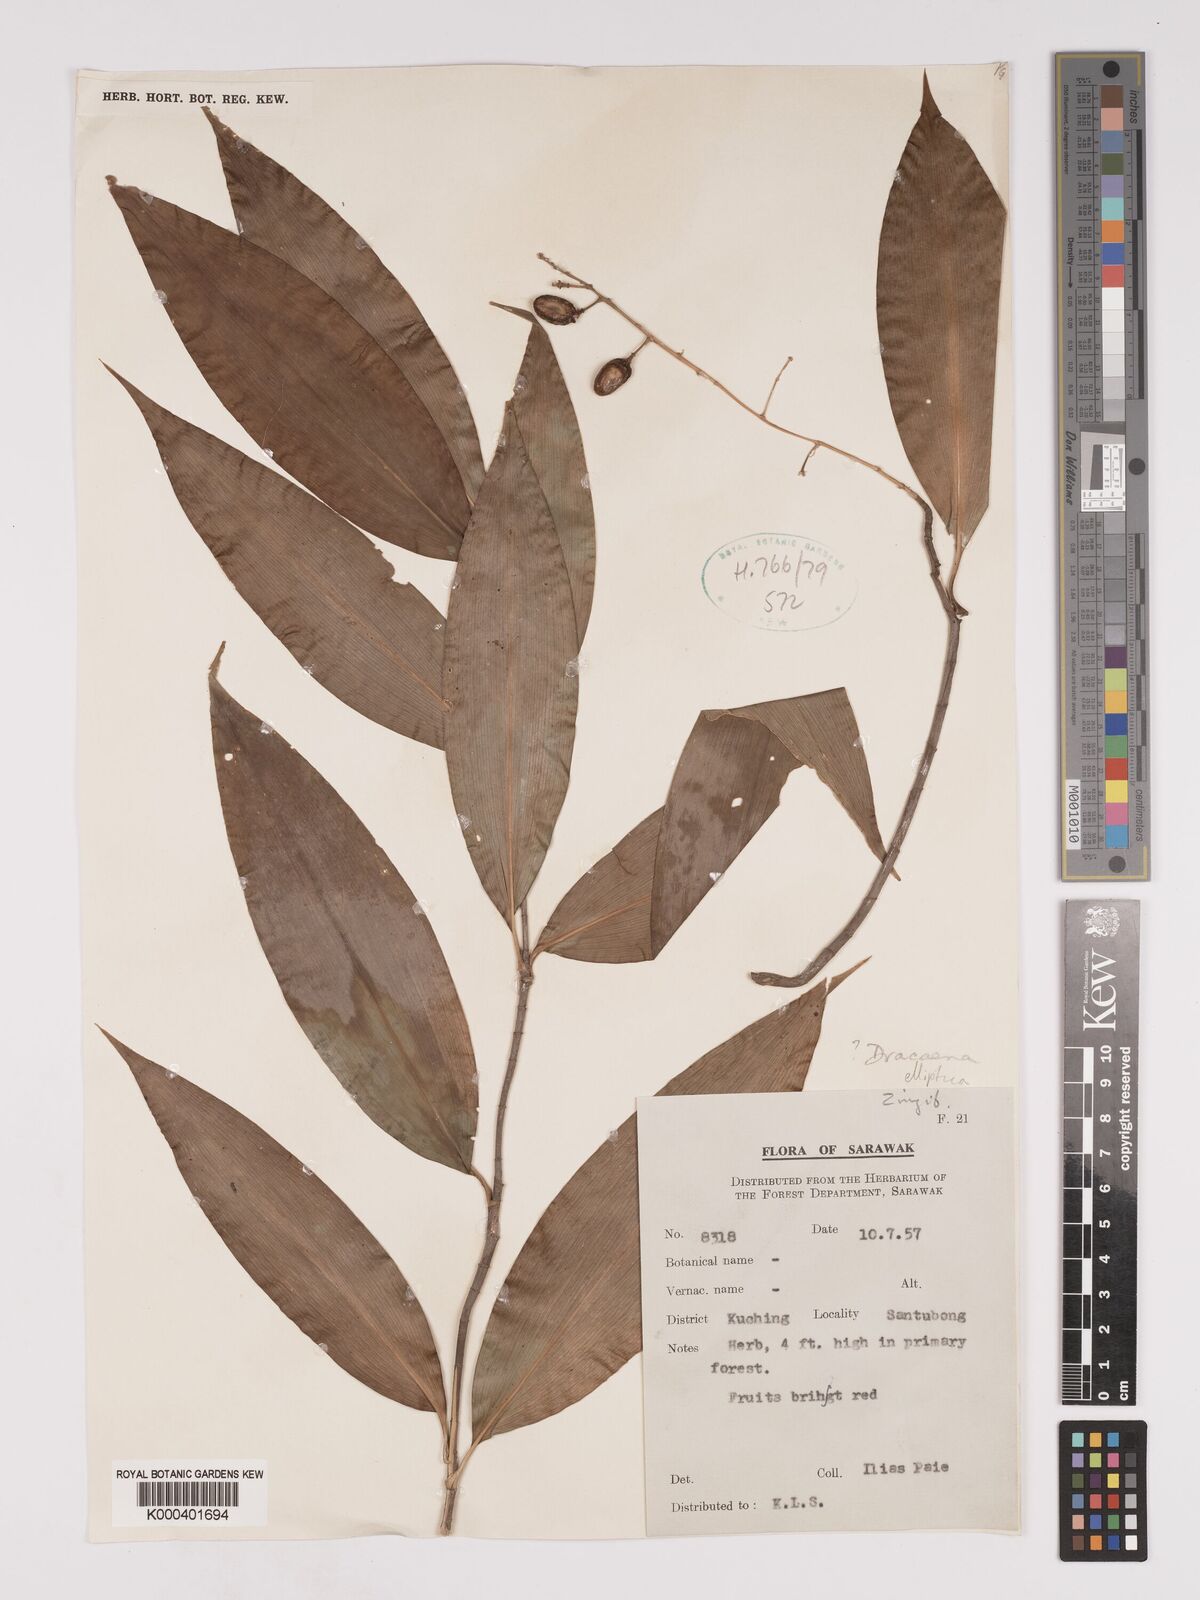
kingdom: Plantae
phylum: Tracheophyta
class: Liliopsida
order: Asparagales
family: Asparagaceae
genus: Dracaena
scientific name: Dracaena elliptica
